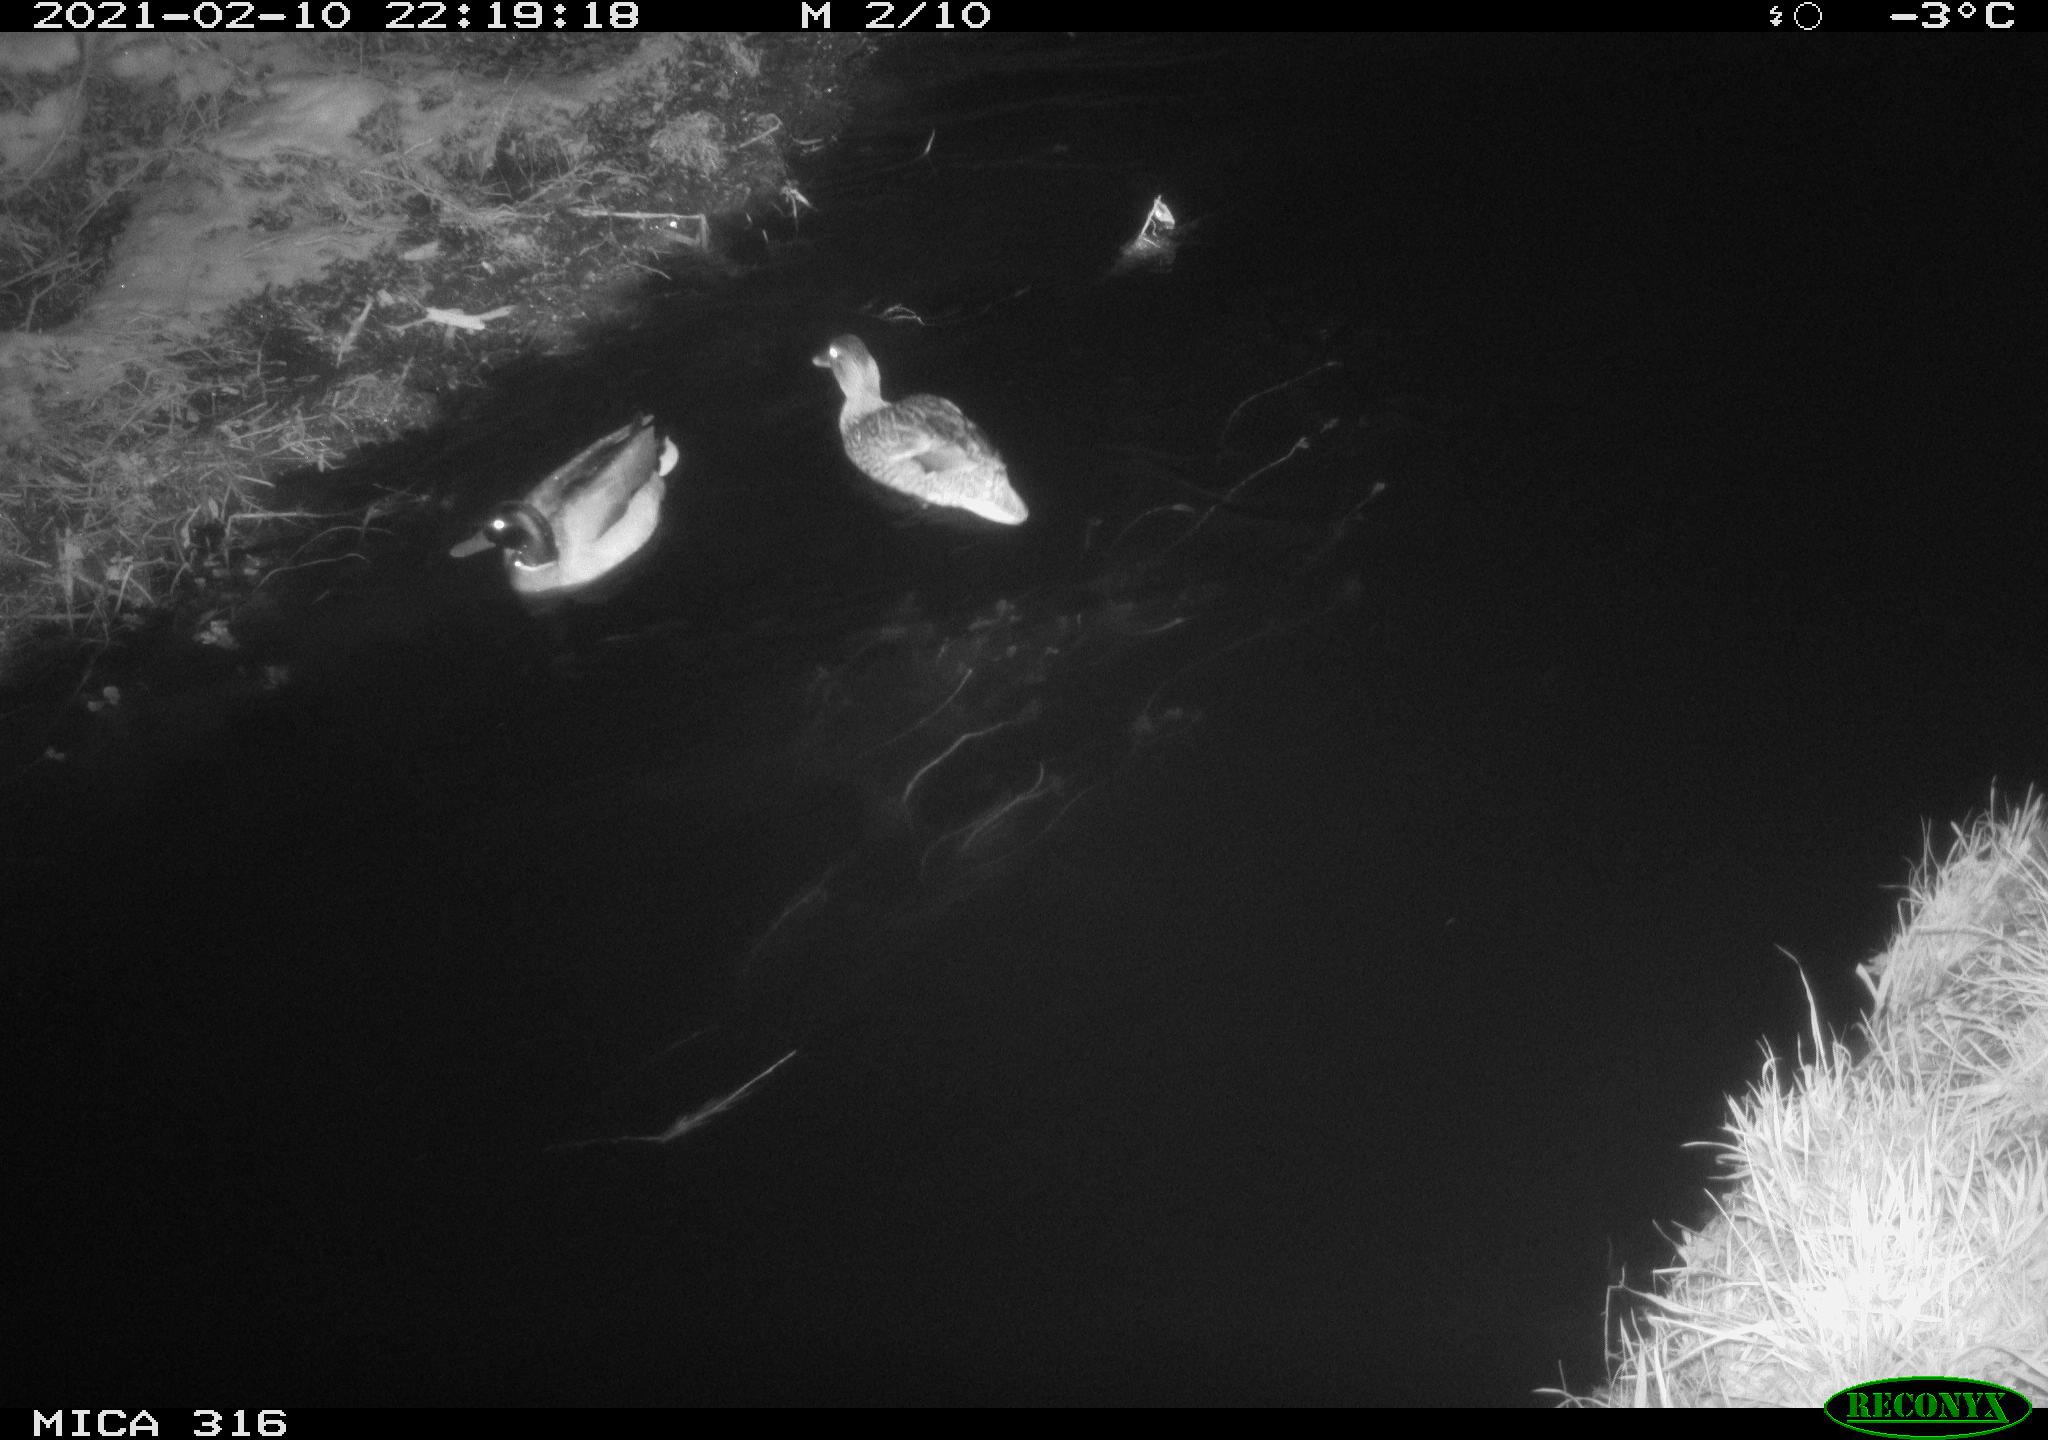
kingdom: Animalia
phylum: Chordata
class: Aves
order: Anseriformes
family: Anatidae
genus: Anas
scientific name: Anas platyrhynchos
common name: Mallard
